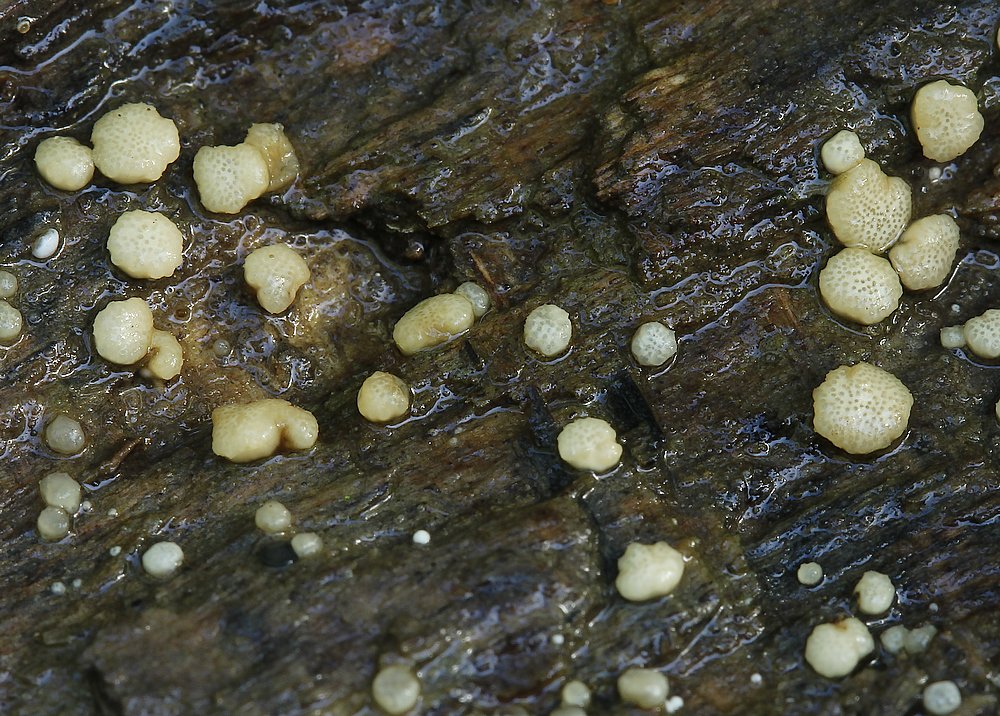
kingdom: Fungi
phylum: Ascomycota
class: Sordariomycetes
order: Hypocreales
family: Hypocreaceae
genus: Trichoderma
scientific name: Trichoderma
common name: kødkerne
